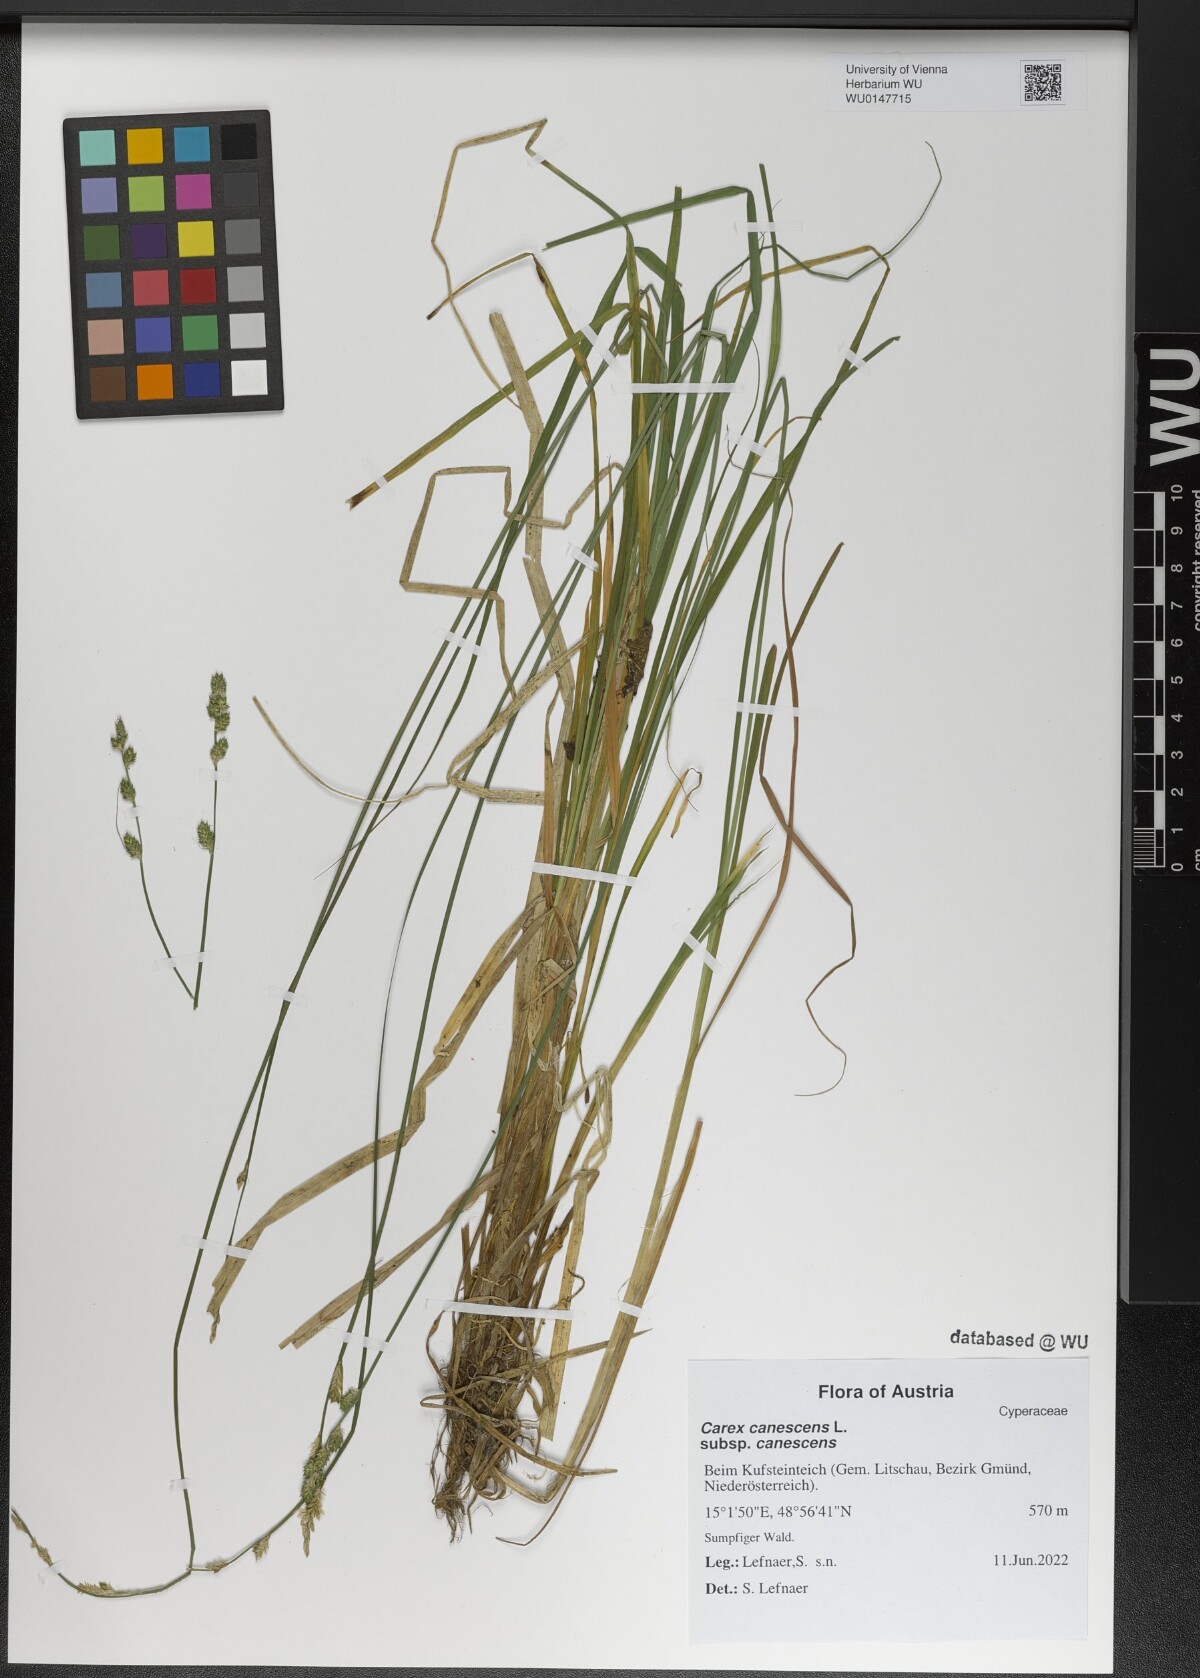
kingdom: Plantae
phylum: Tracheophyta
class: Liliopsida
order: Poales
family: Cyperaceae
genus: Carex
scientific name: Carex canescens
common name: White sedge
